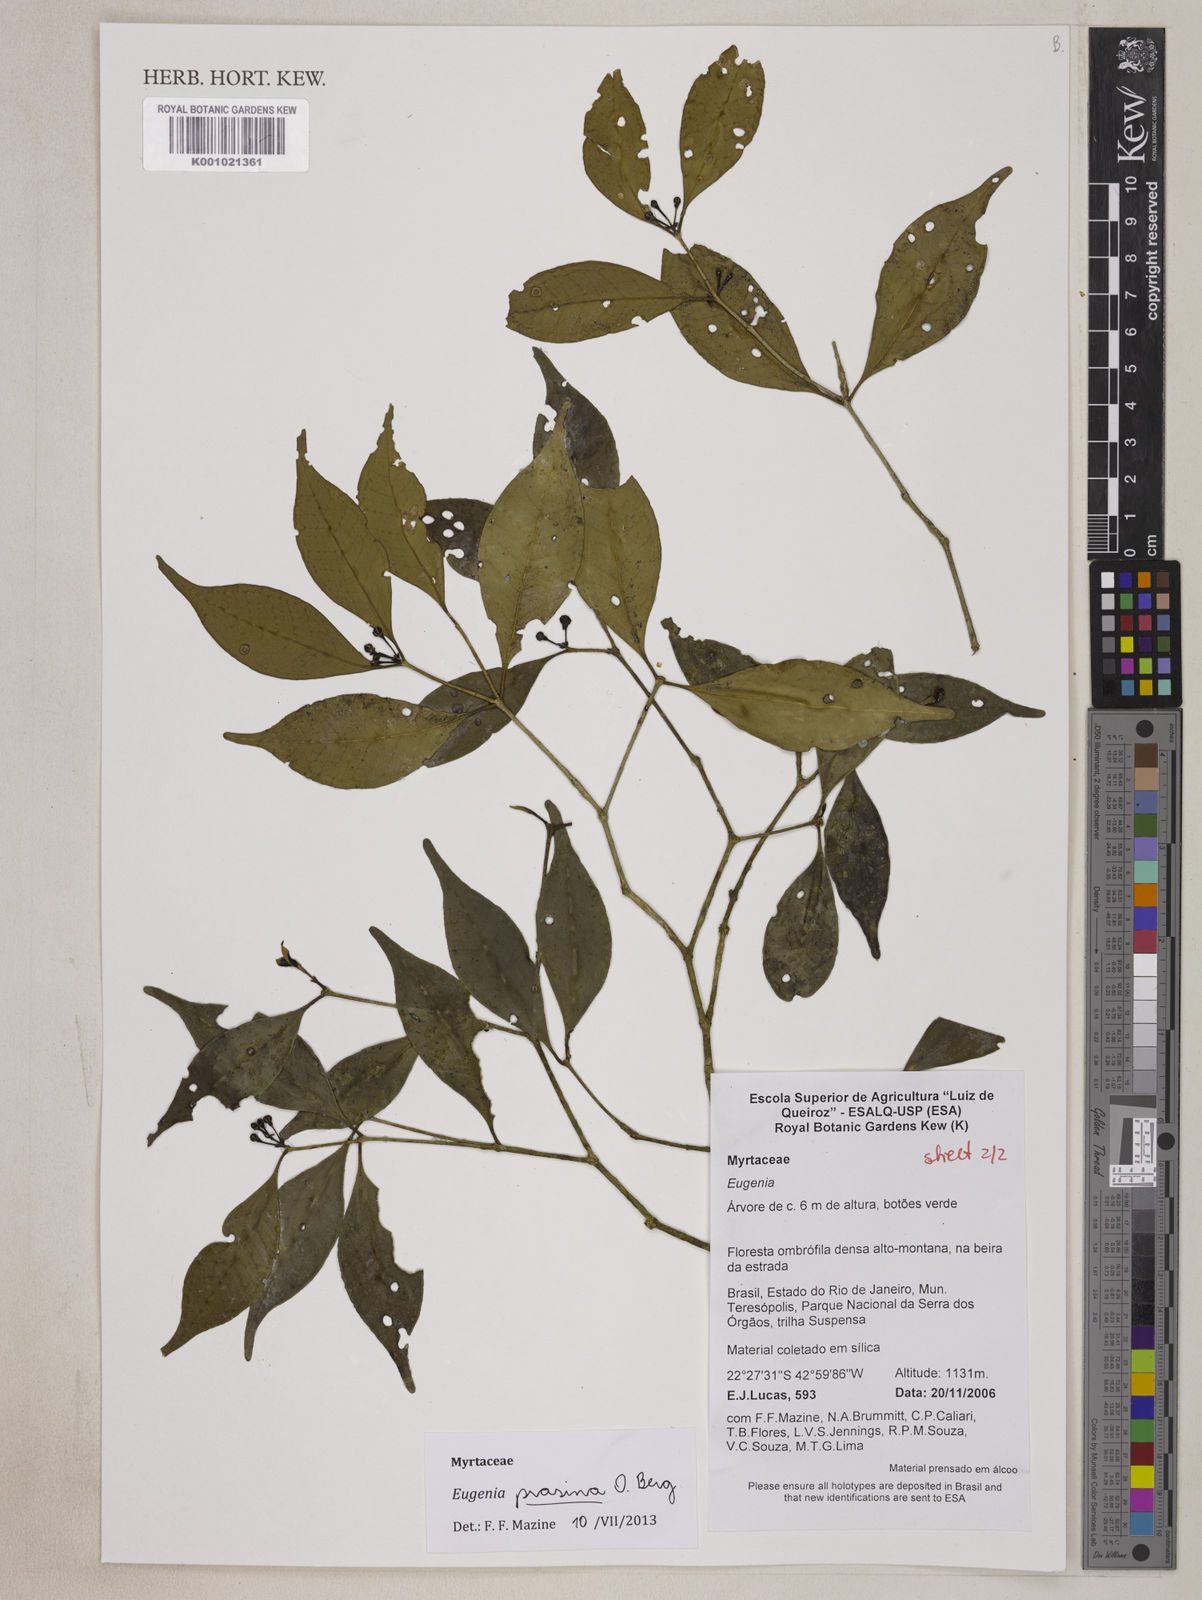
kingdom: Plantae
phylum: Tracheophyta
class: Magnoliopsida
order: Myrtales
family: Myrtaceae
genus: Eugenia
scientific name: Eugenia prasina
